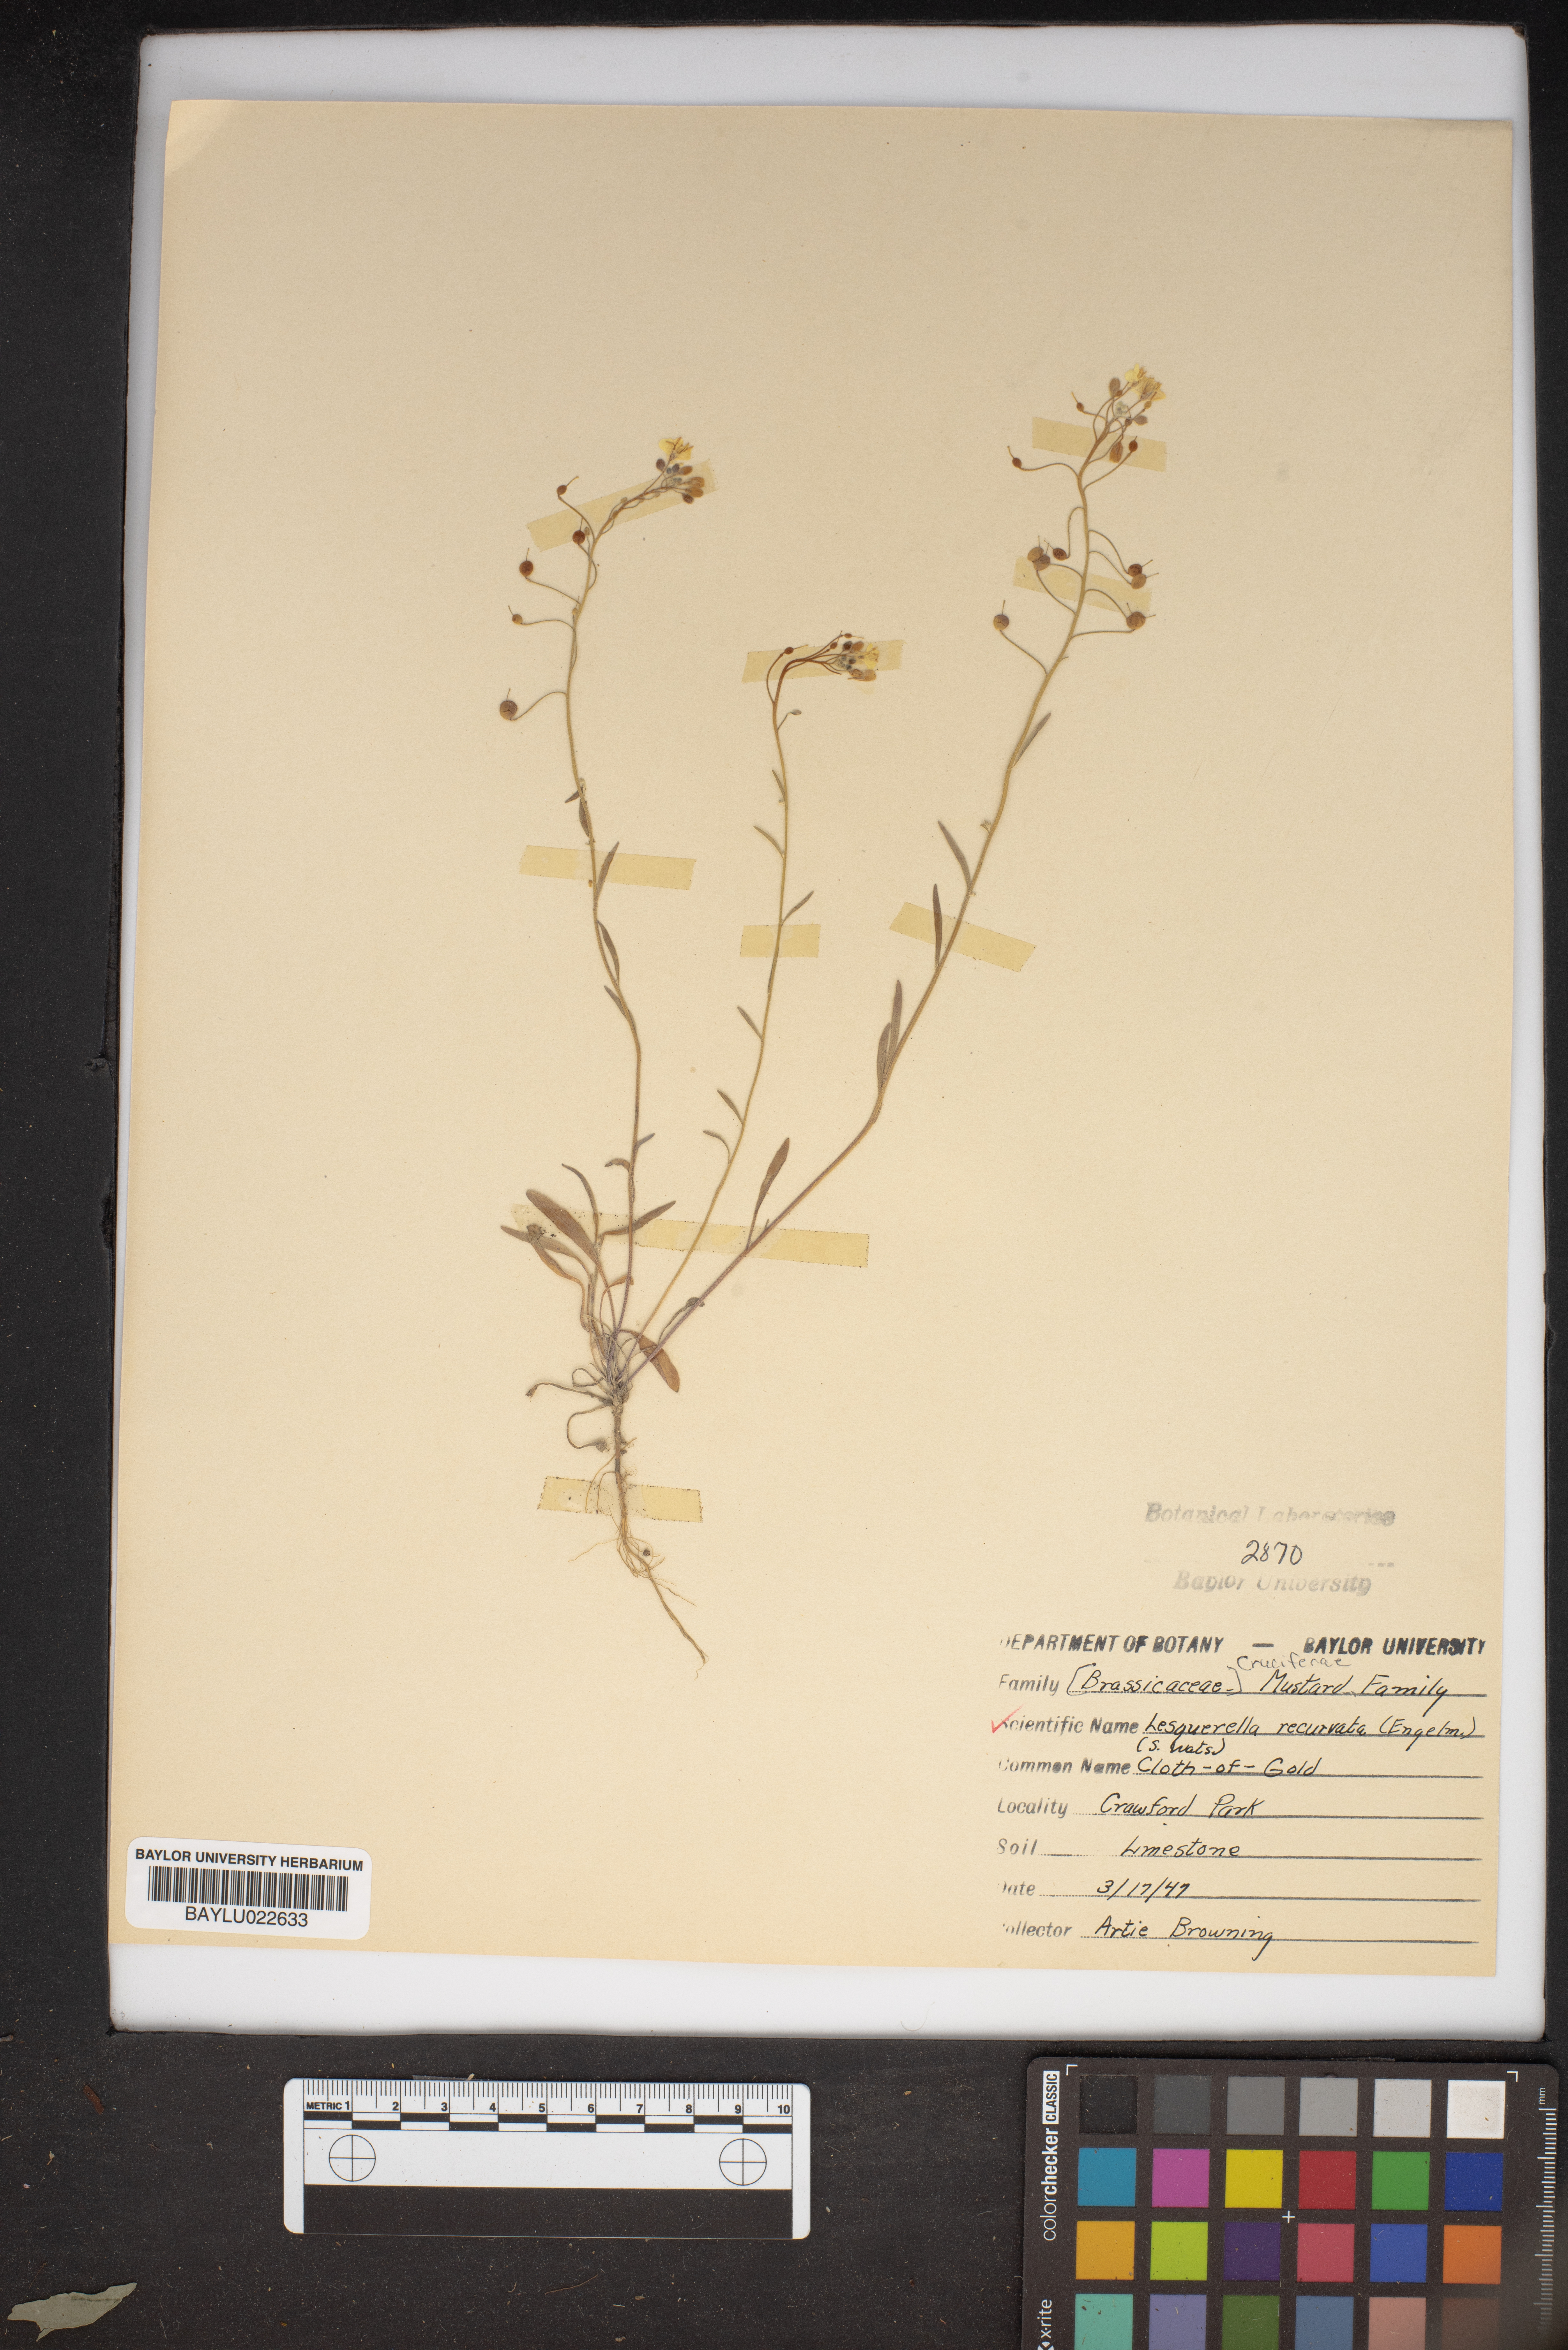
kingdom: Plantae
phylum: Tracheophyta
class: Magnoliopsida
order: Brassicales
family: Brassicaceae
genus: Physaria
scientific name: Physaria recurvata
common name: Gaslight bladderpod
